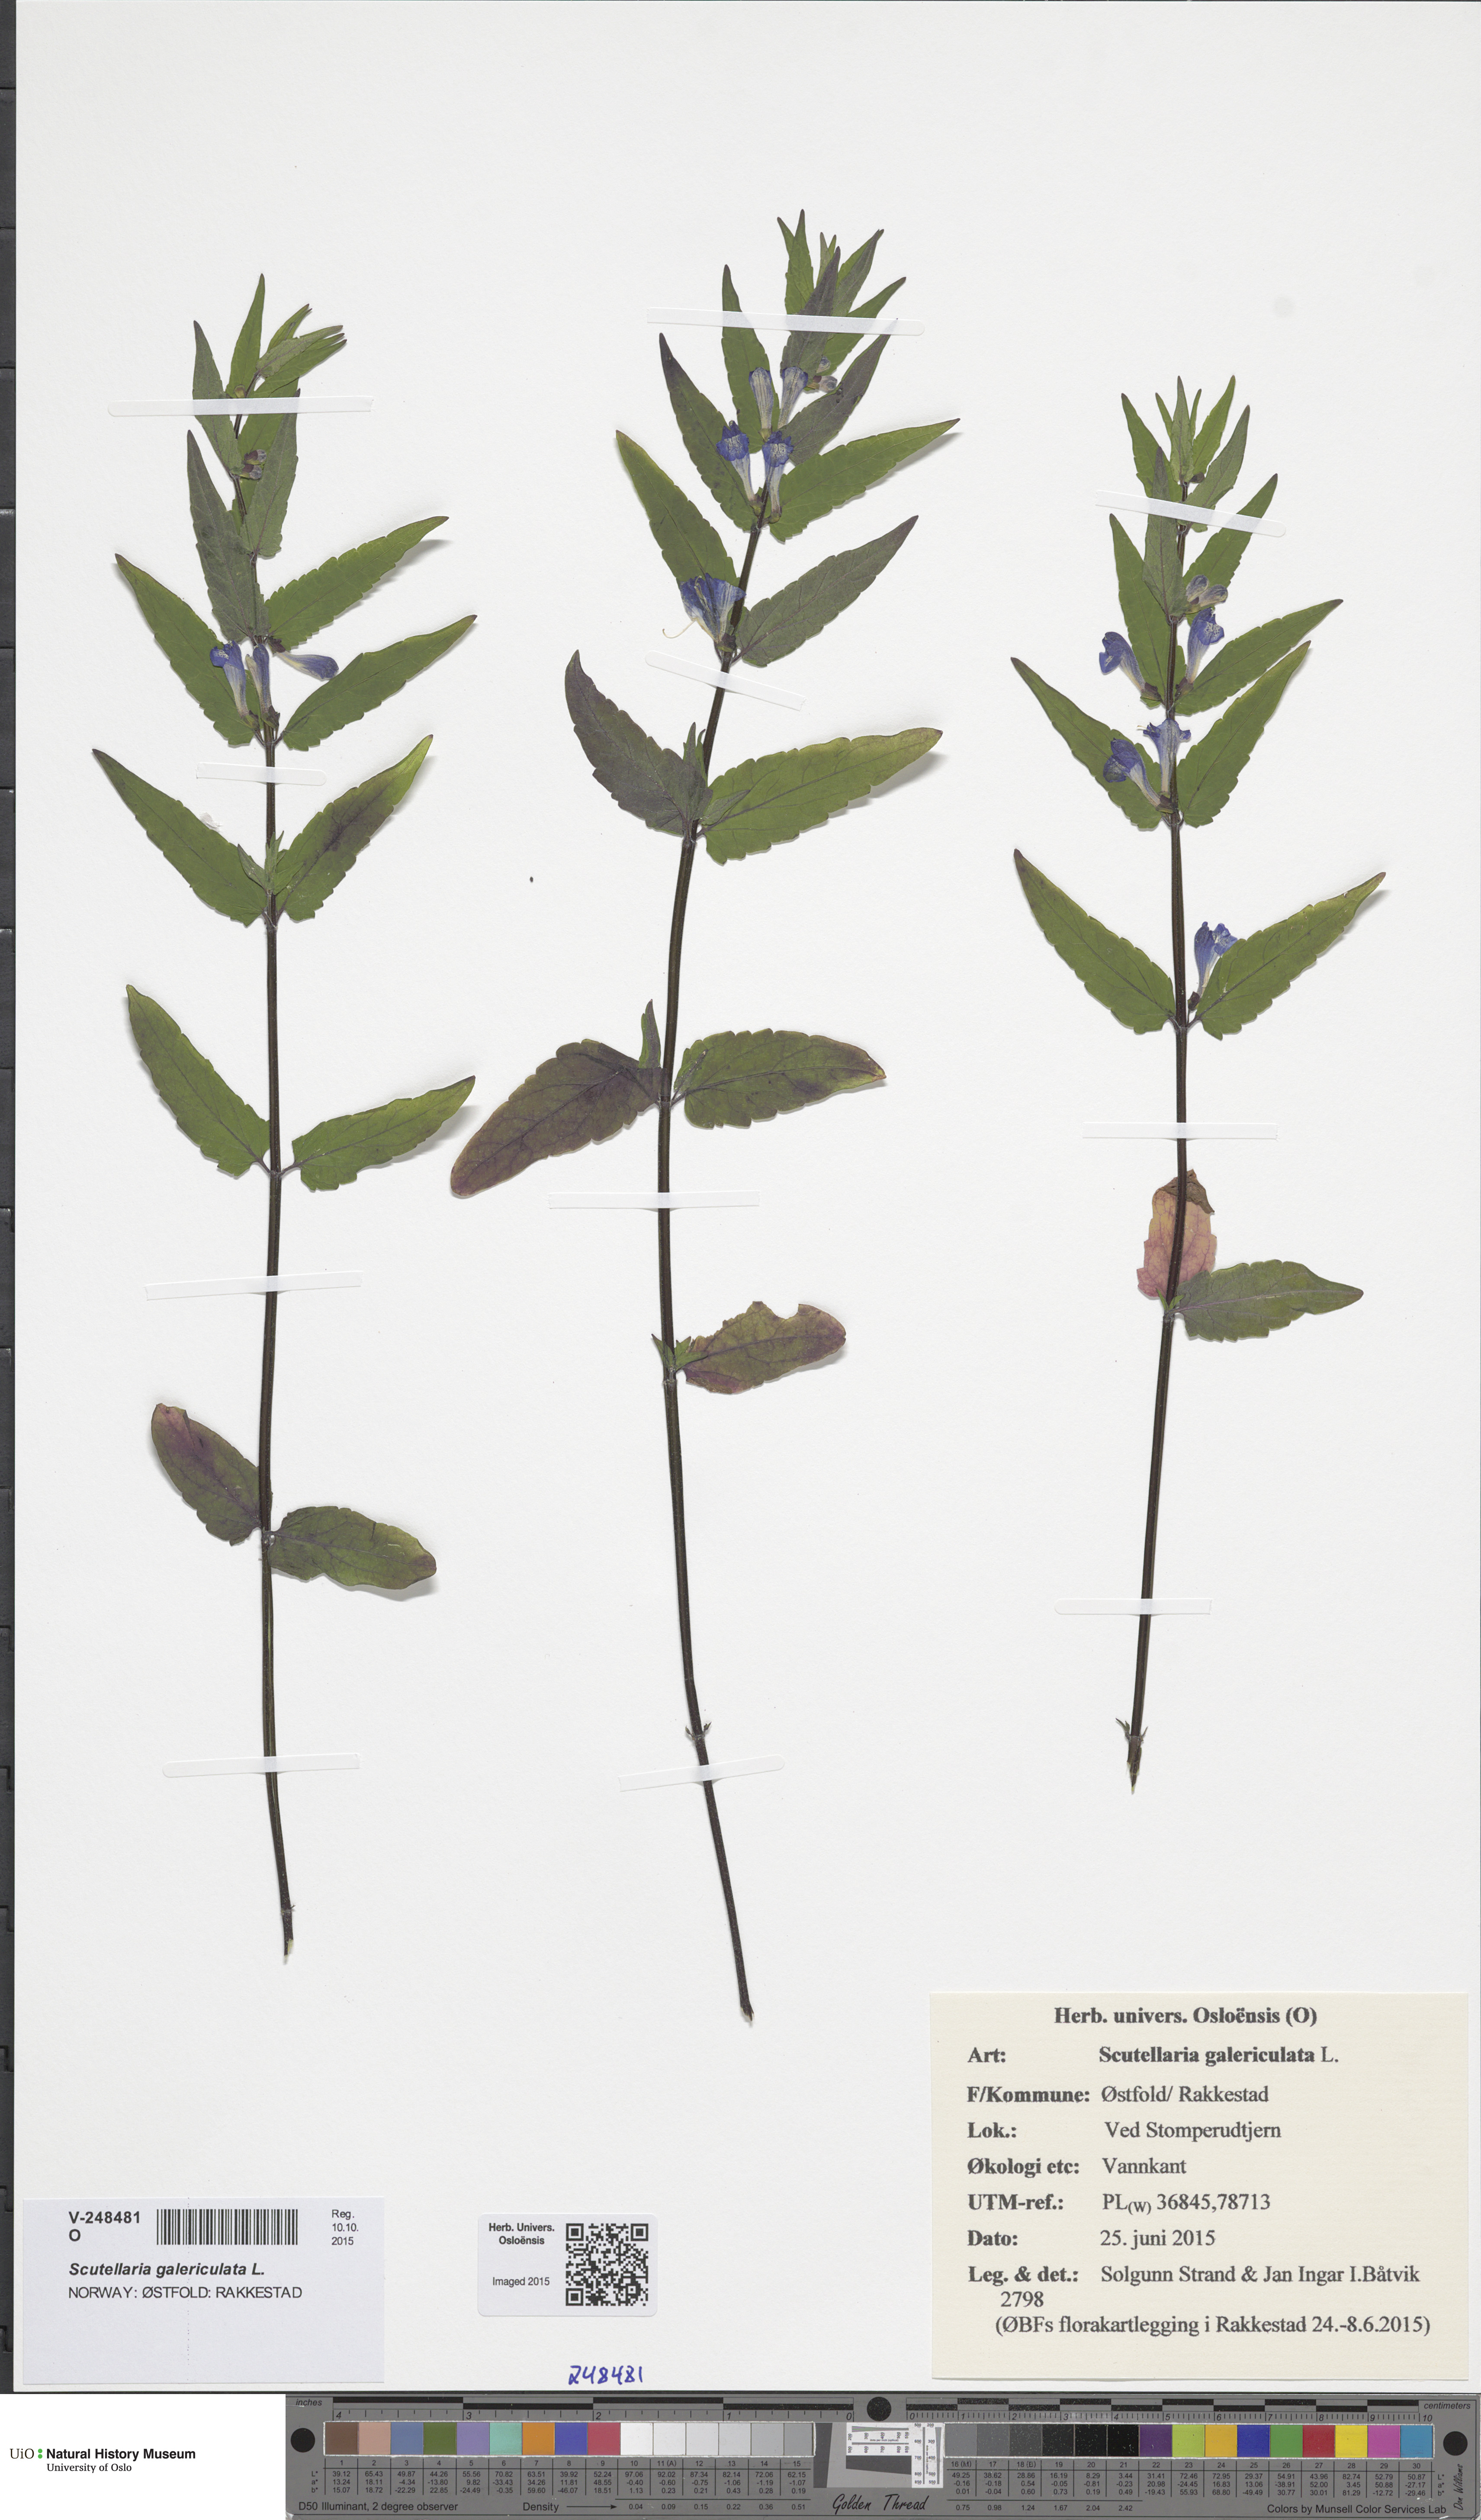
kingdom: Plantae
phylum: Tracheophyta
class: Magnoliopsida
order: Lamiales
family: Lamiaceae
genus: Scutellaria
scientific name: Scutellaria galericulata
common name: Skullcap
